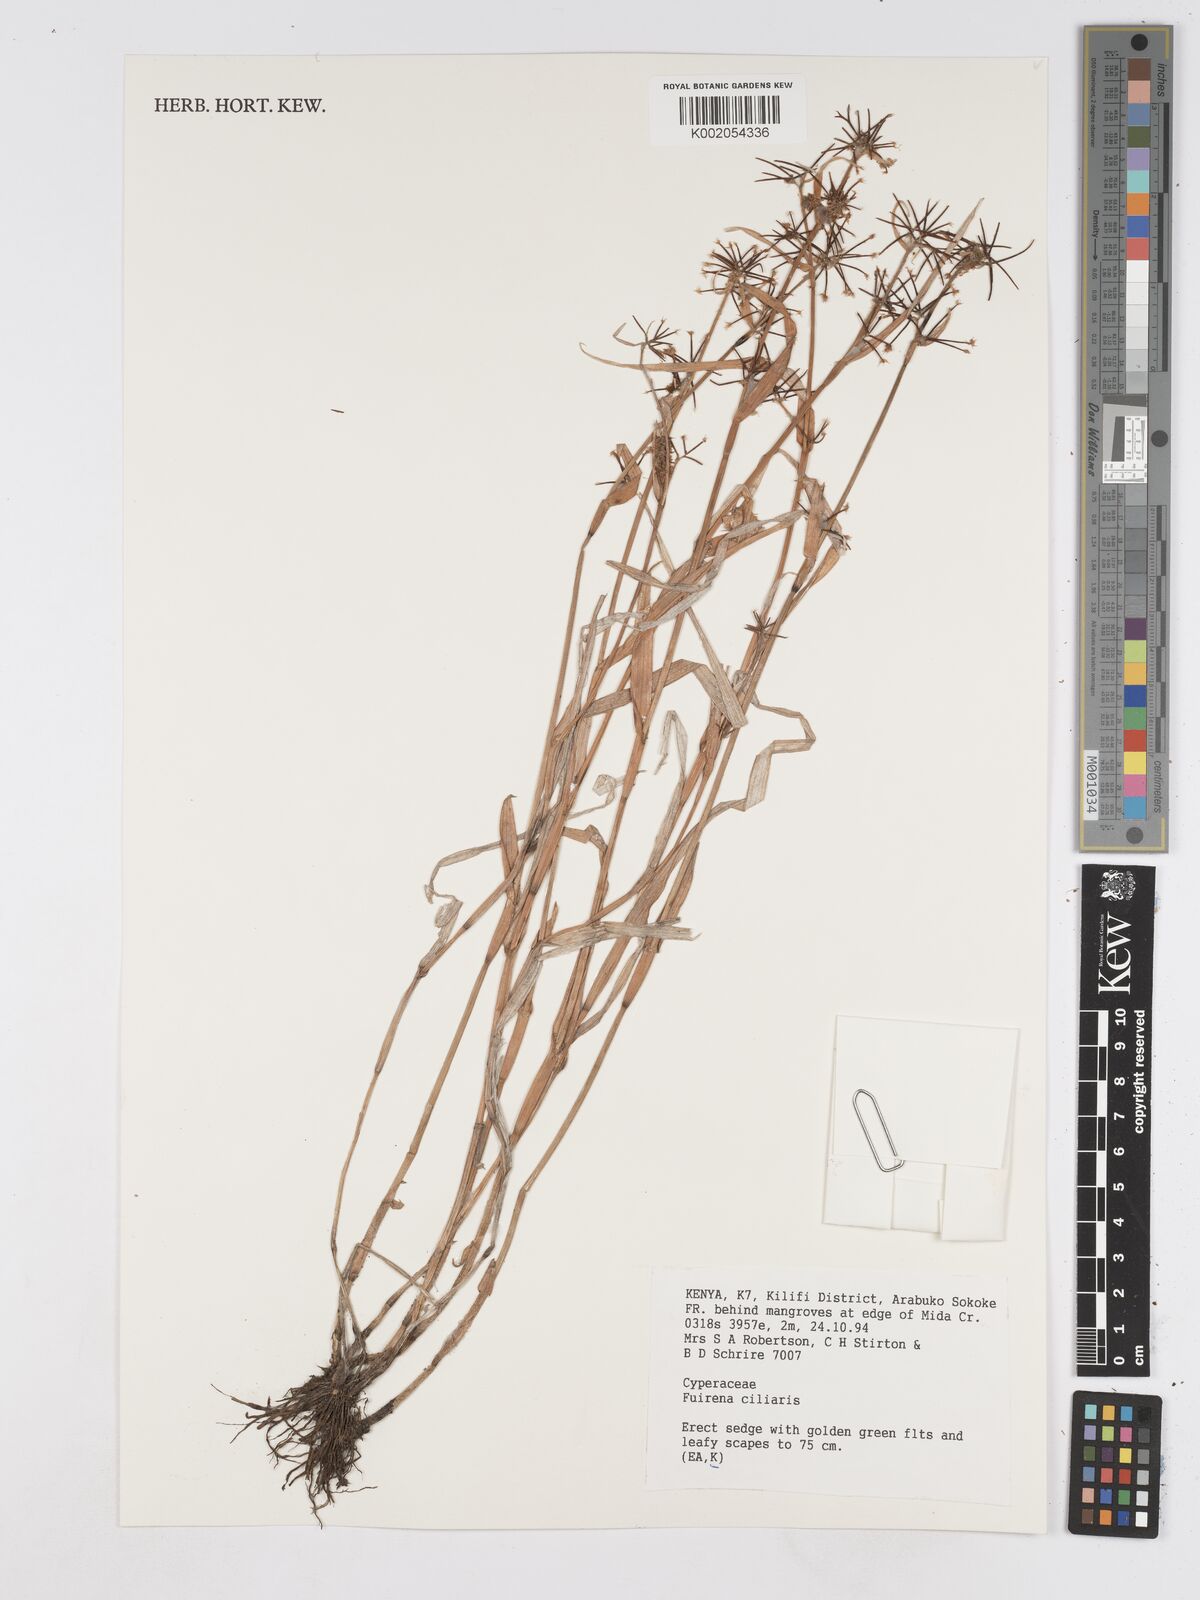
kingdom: Plantae
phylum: Tracheophyta
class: Liliopsida
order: Poales
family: Cyperaceae
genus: Fuirena
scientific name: Fuirena ciliaris
